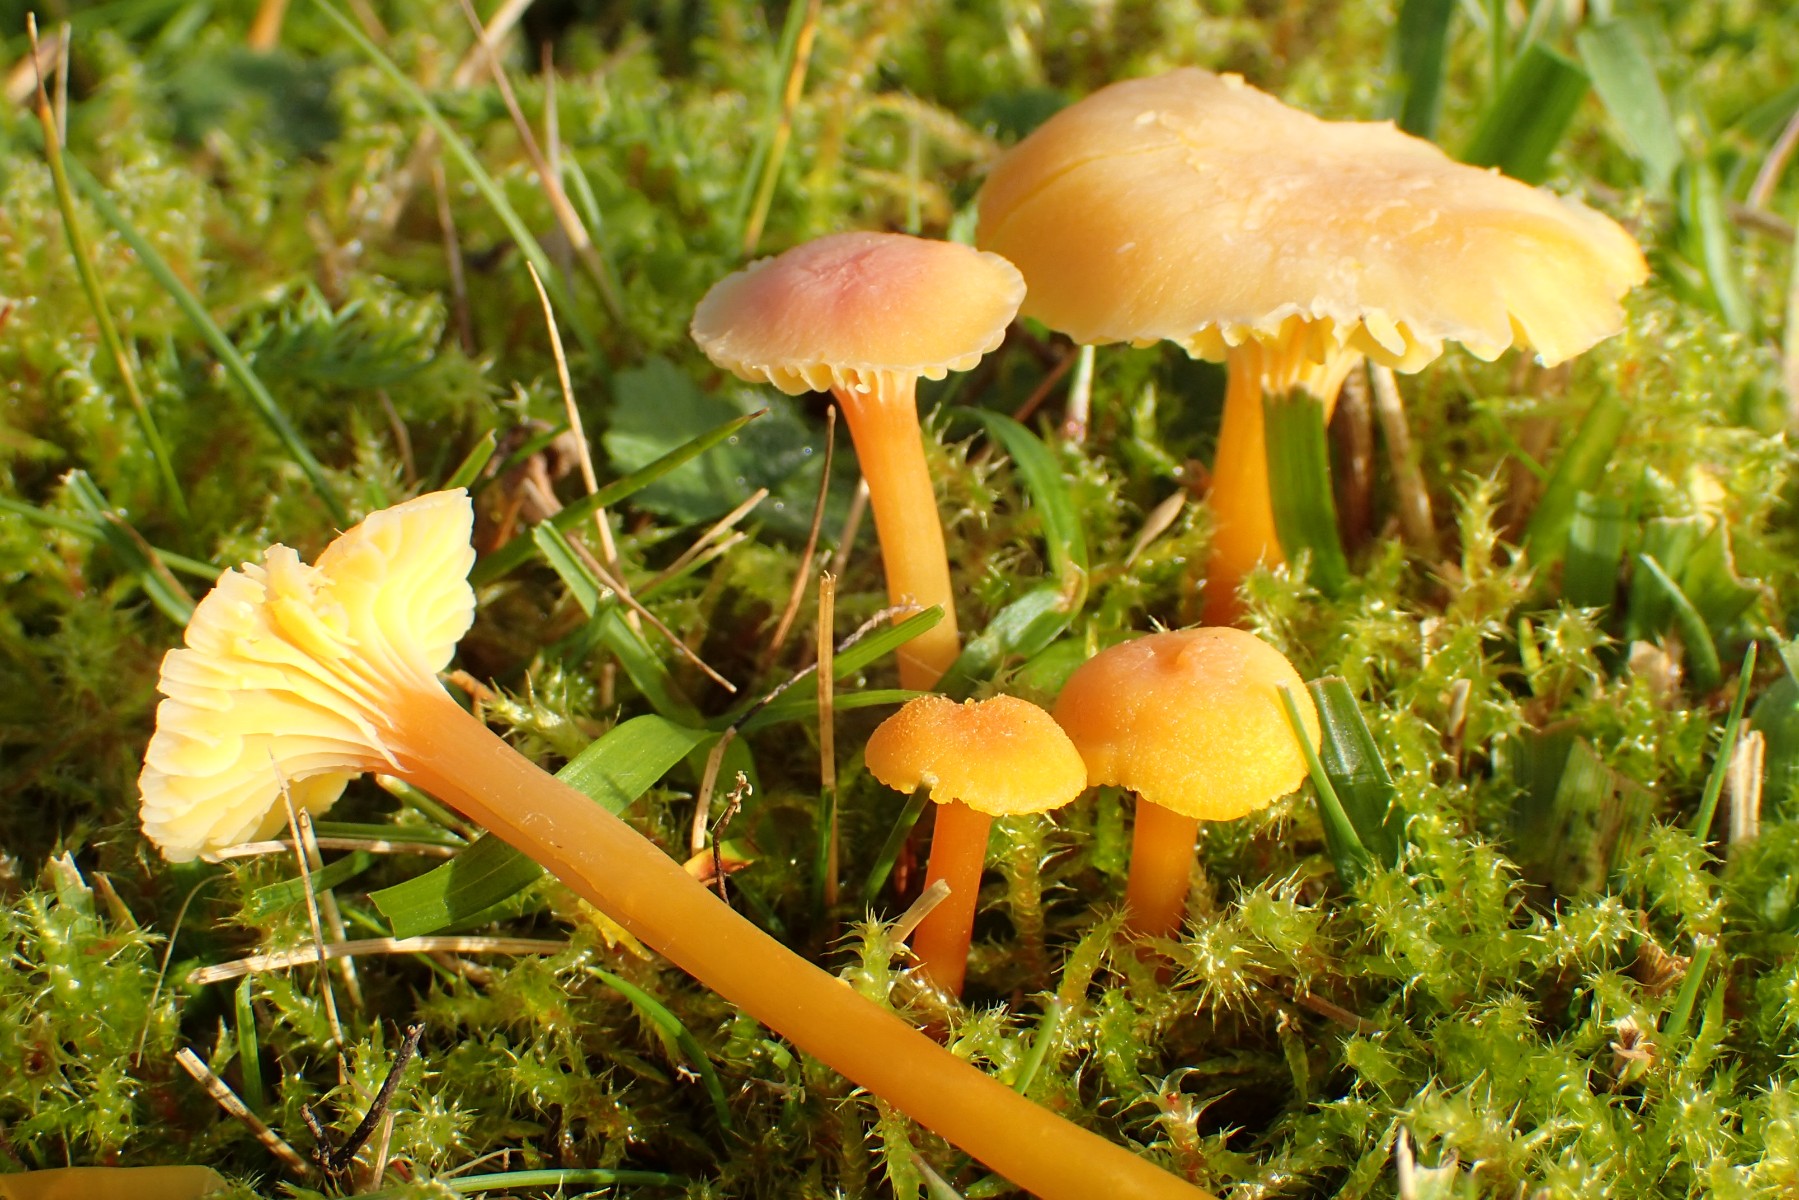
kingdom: Fungi
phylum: Basidiomycota
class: Agaricomycetes
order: Agaricales
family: Hygrophoraceae
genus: Hygrocybe
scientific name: Hygrocybe cantharellus
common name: kantarel-vokshat
